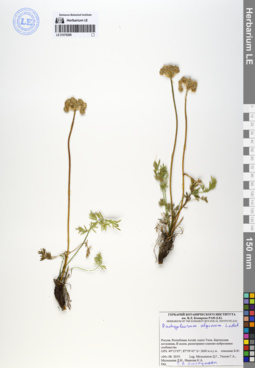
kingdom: Plantae
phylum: Tracheophyta
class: Magnoliopsida
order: Apiales
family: Apiaceae
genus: Pachypleurum
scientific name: Pachypleurum mutellinoides
